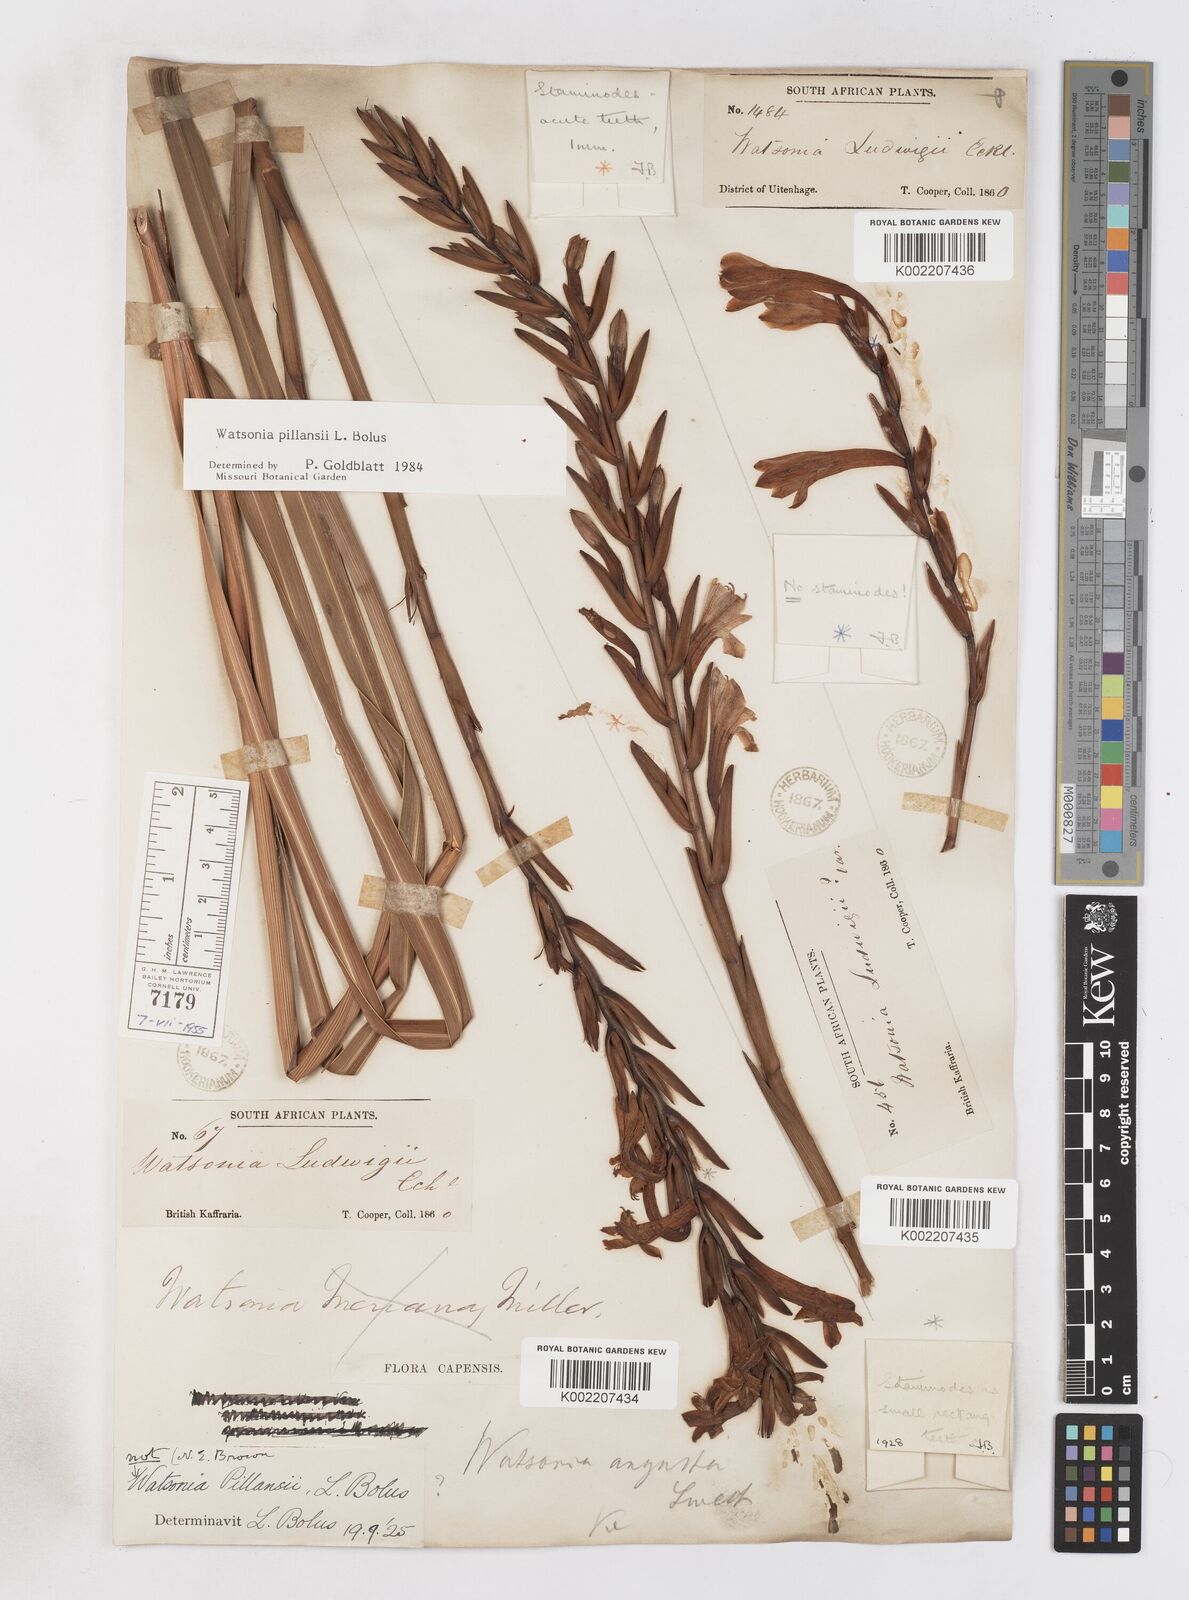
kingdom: Plantae
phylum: Tracheophyta
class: Liliopsida
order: Asparagales
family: Iridaceae
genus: Watsonia
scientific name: Watsonia pillansii
